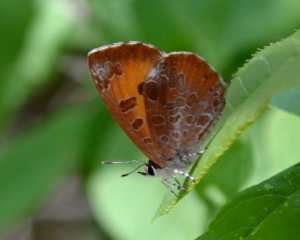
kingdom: Animalia
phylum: Arthropoda
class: Insecta
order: Lepidoptera
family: Lycaenidae
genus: Feniseca
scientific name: Feniseca tarquinius
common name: Harvester
